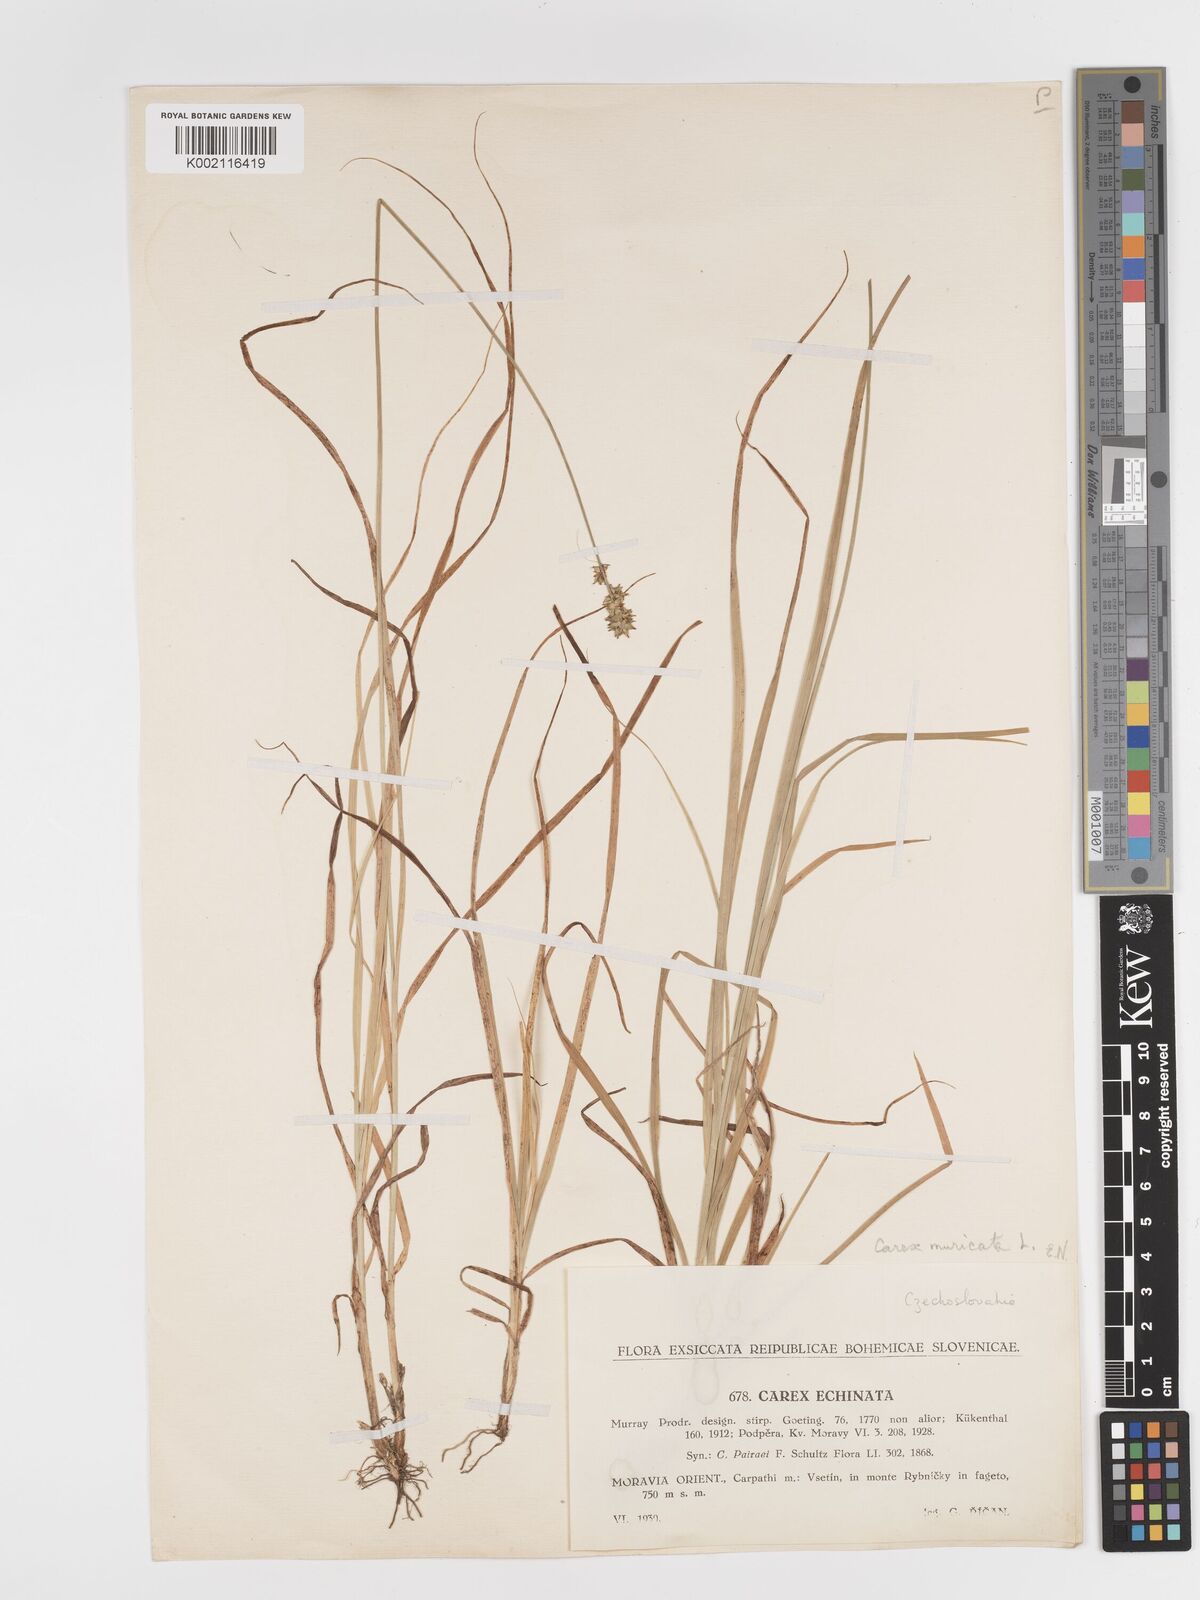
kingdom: Plantae
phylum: Tracheophyta
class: Liliopsida
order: Poales
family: Cyperaceae
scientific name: Cyperaceae
